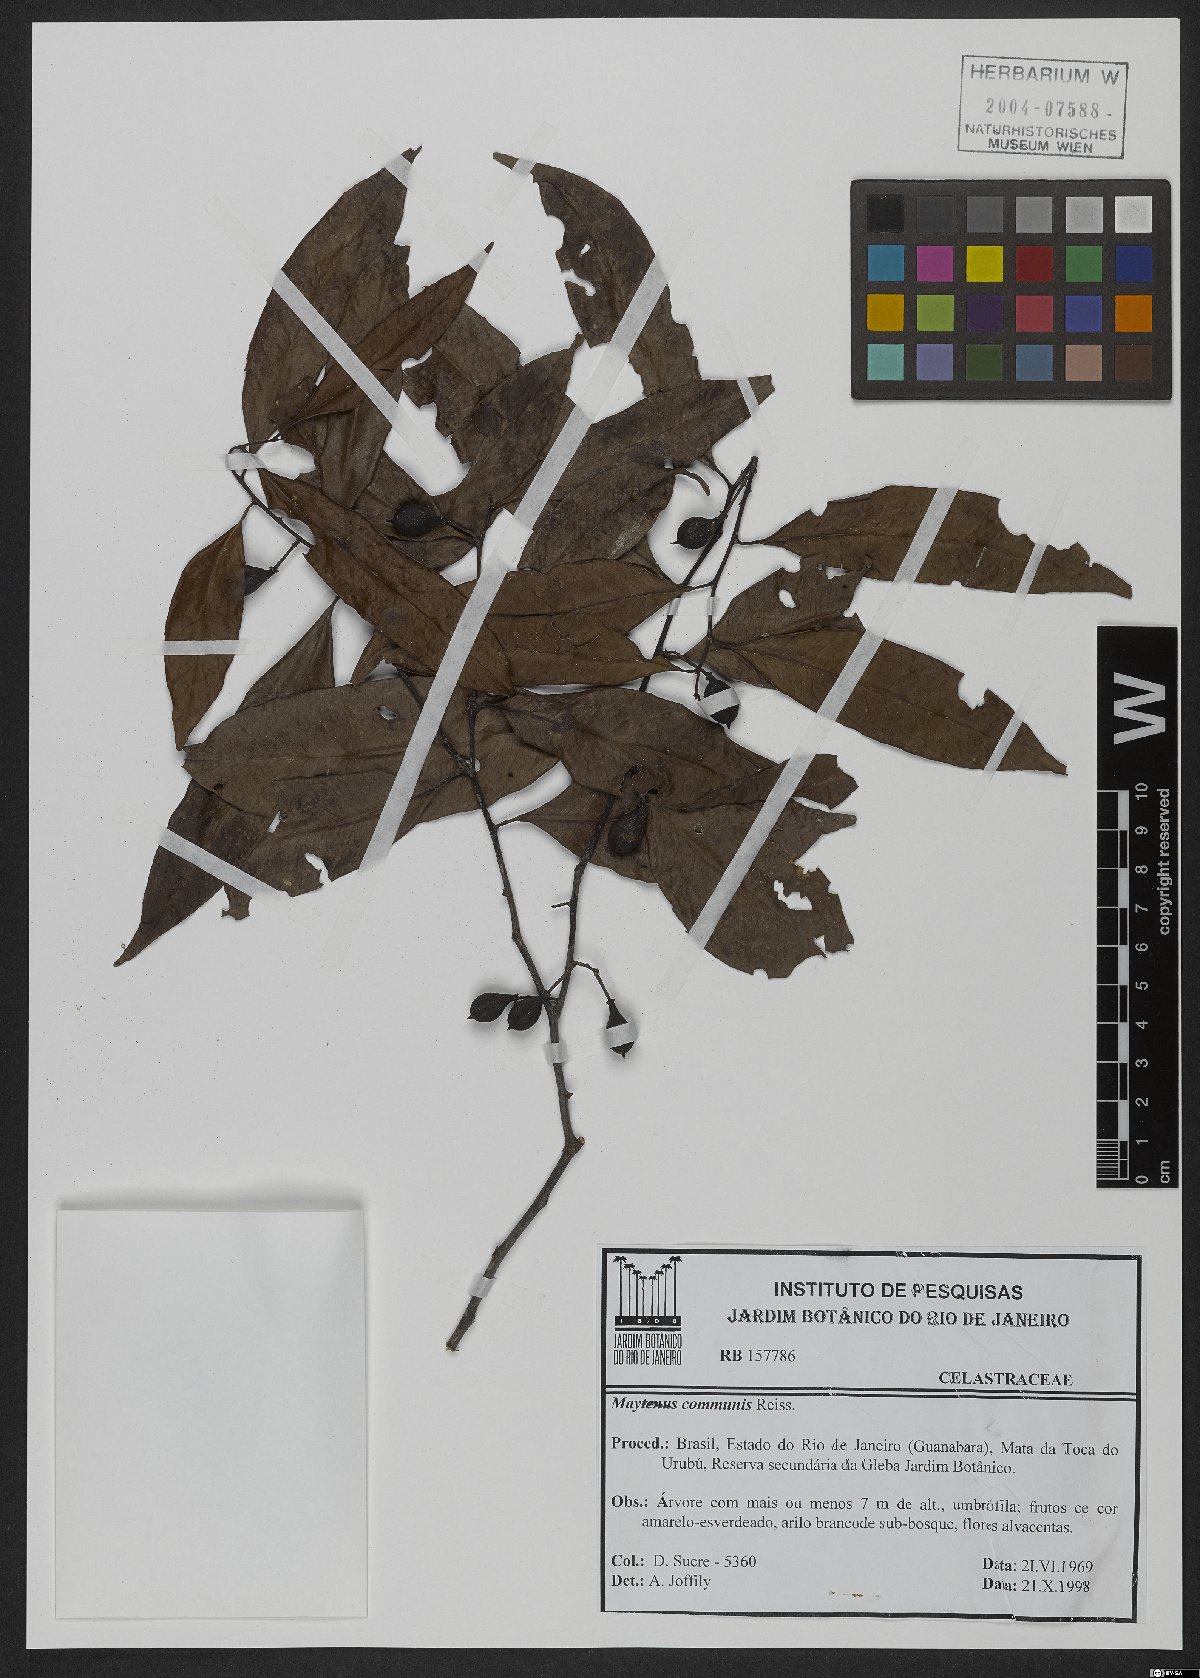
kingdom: Plantae
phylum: Tracheophyta
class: Magnoliopsida
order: Celastrales
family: Celastraceae
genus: Monteverdia
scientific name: Monteverdia communis
